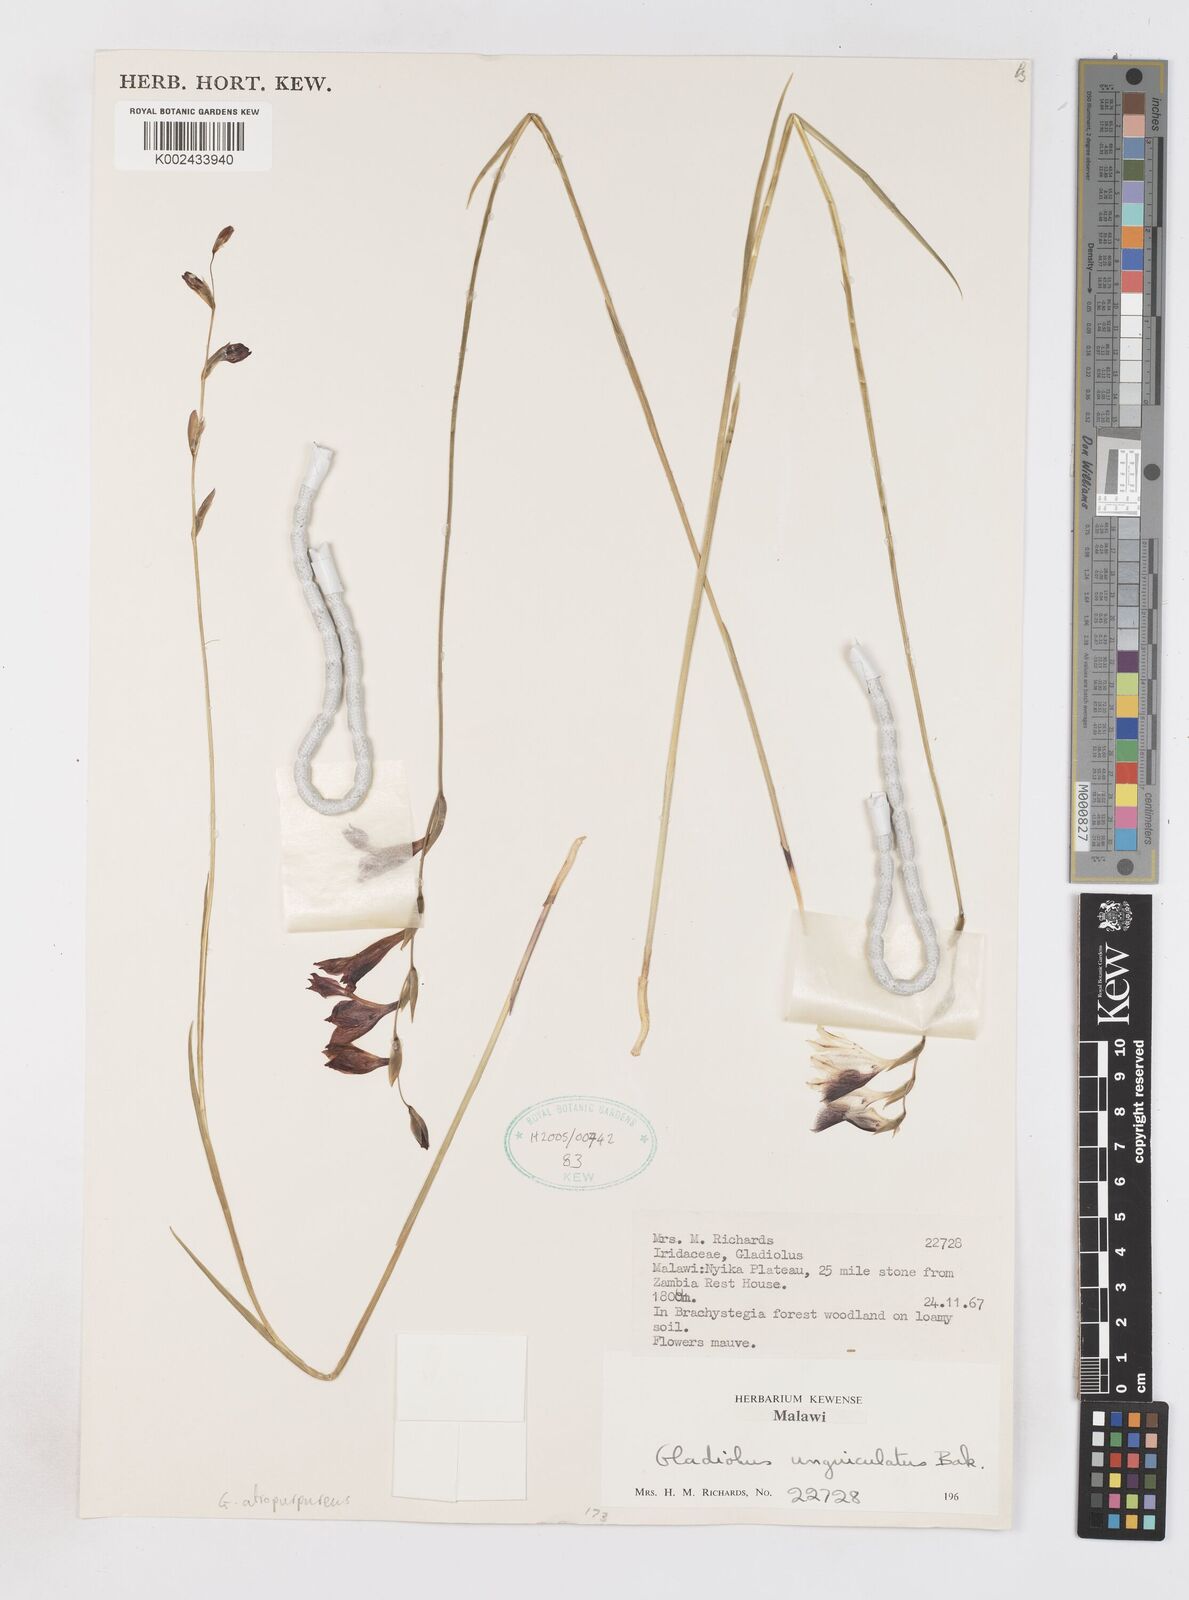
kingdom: Plantae
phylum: Tracheophyta
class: Liliopsida
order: Asparagales
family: Iridaceae
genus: Gladiolus
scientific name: Gladiolus atropurpureus
